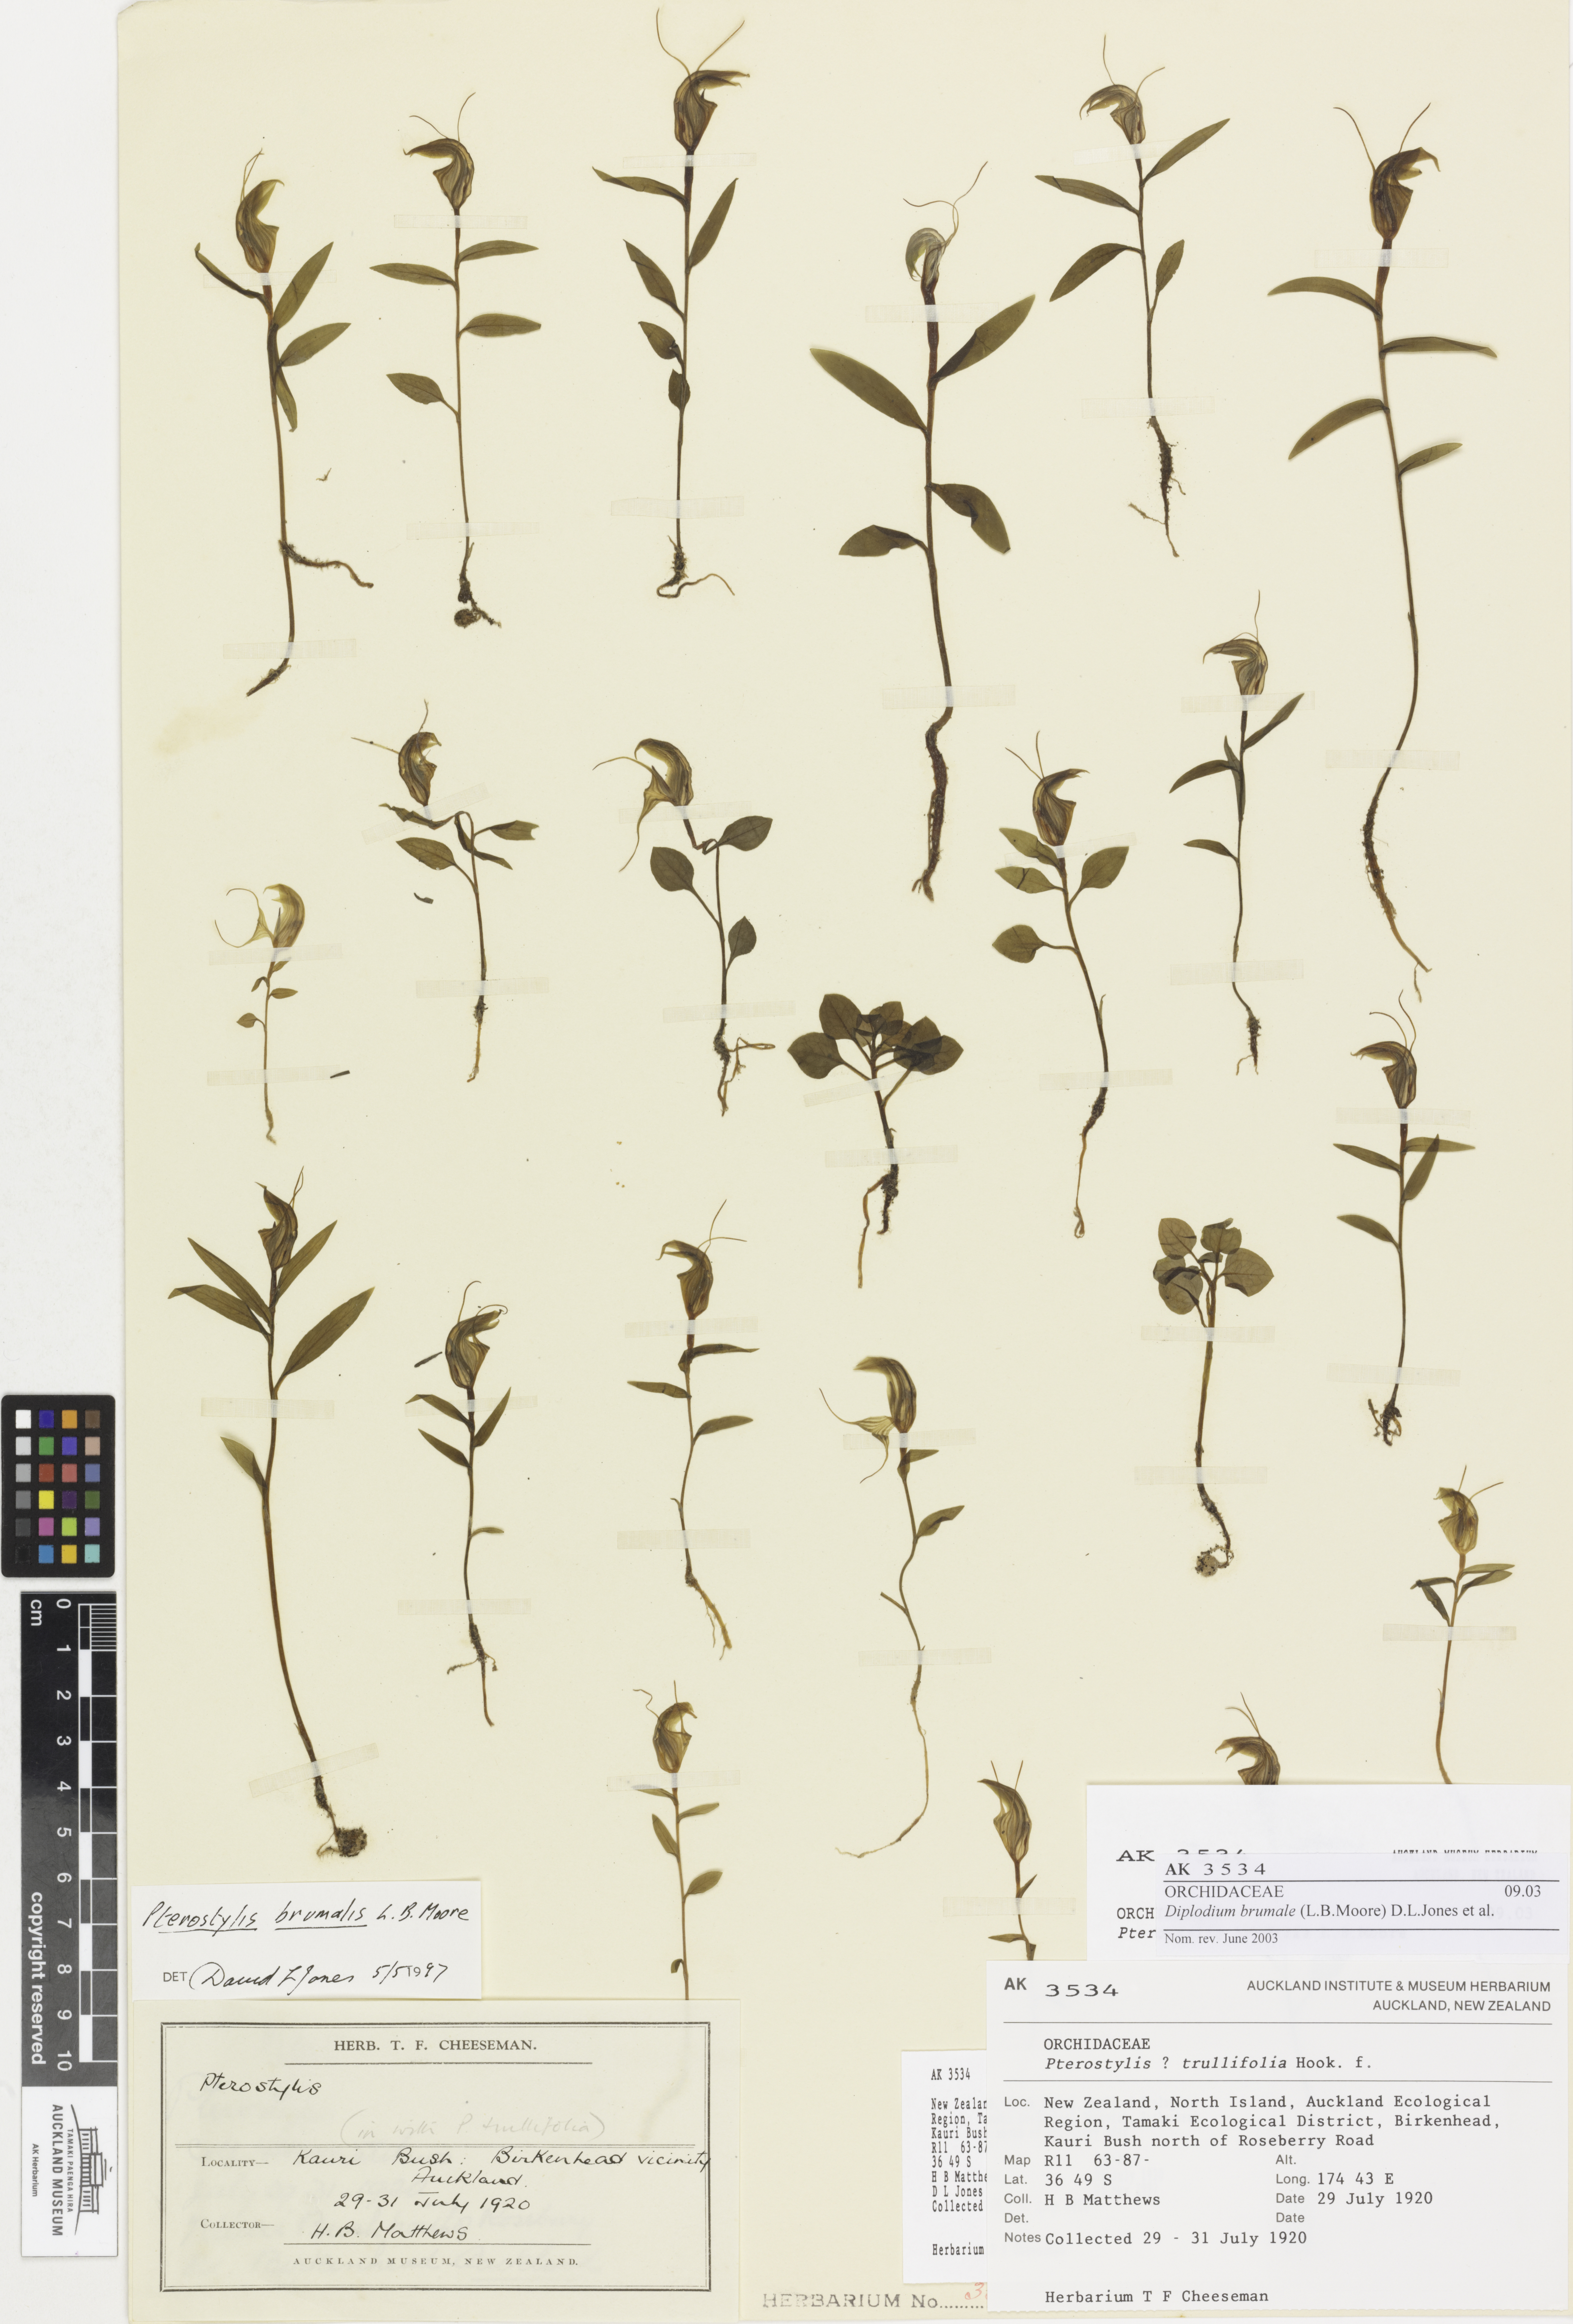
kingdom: Plantae
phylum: Tracheophyta
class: Liliopsida
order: Asparagales
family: Orchidaceae
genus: Pterostylis
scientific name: Pterostylis brumalis
